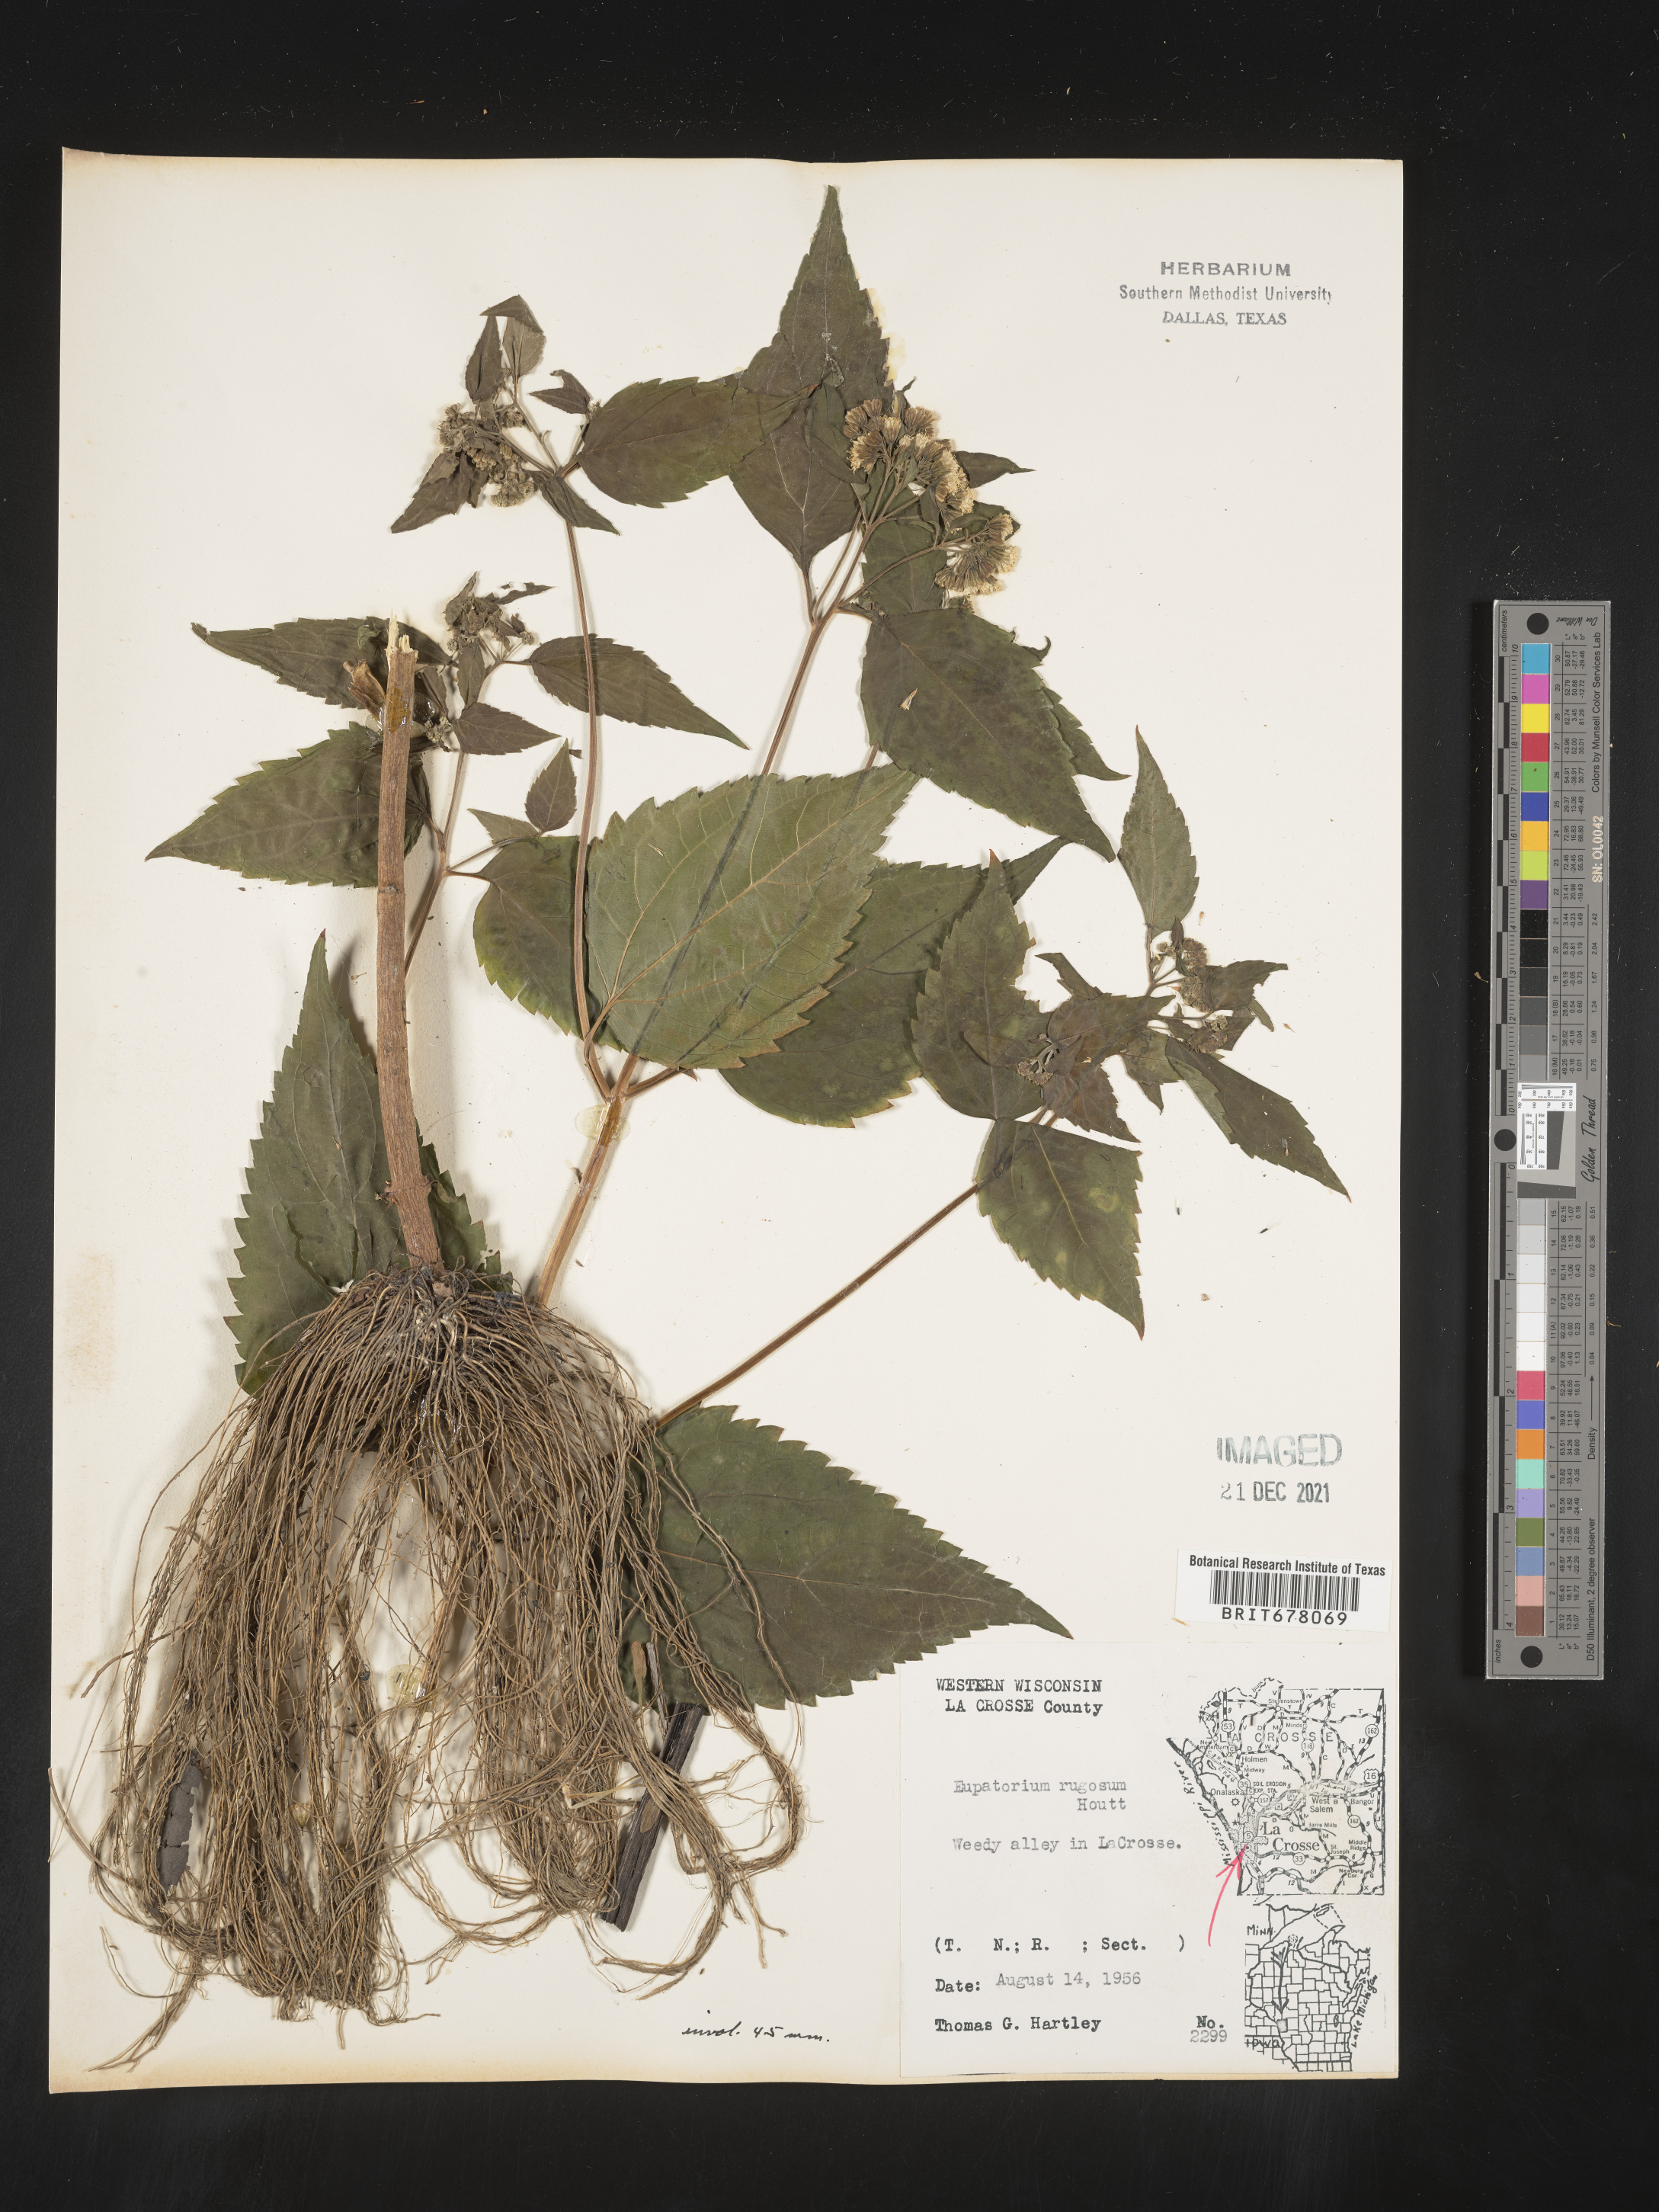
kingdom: Plantae
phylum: Tracheophyta
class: Magnoliopsida
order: Asterales
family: Asteraceae
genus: Eupatorium
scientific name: Eupatorium
